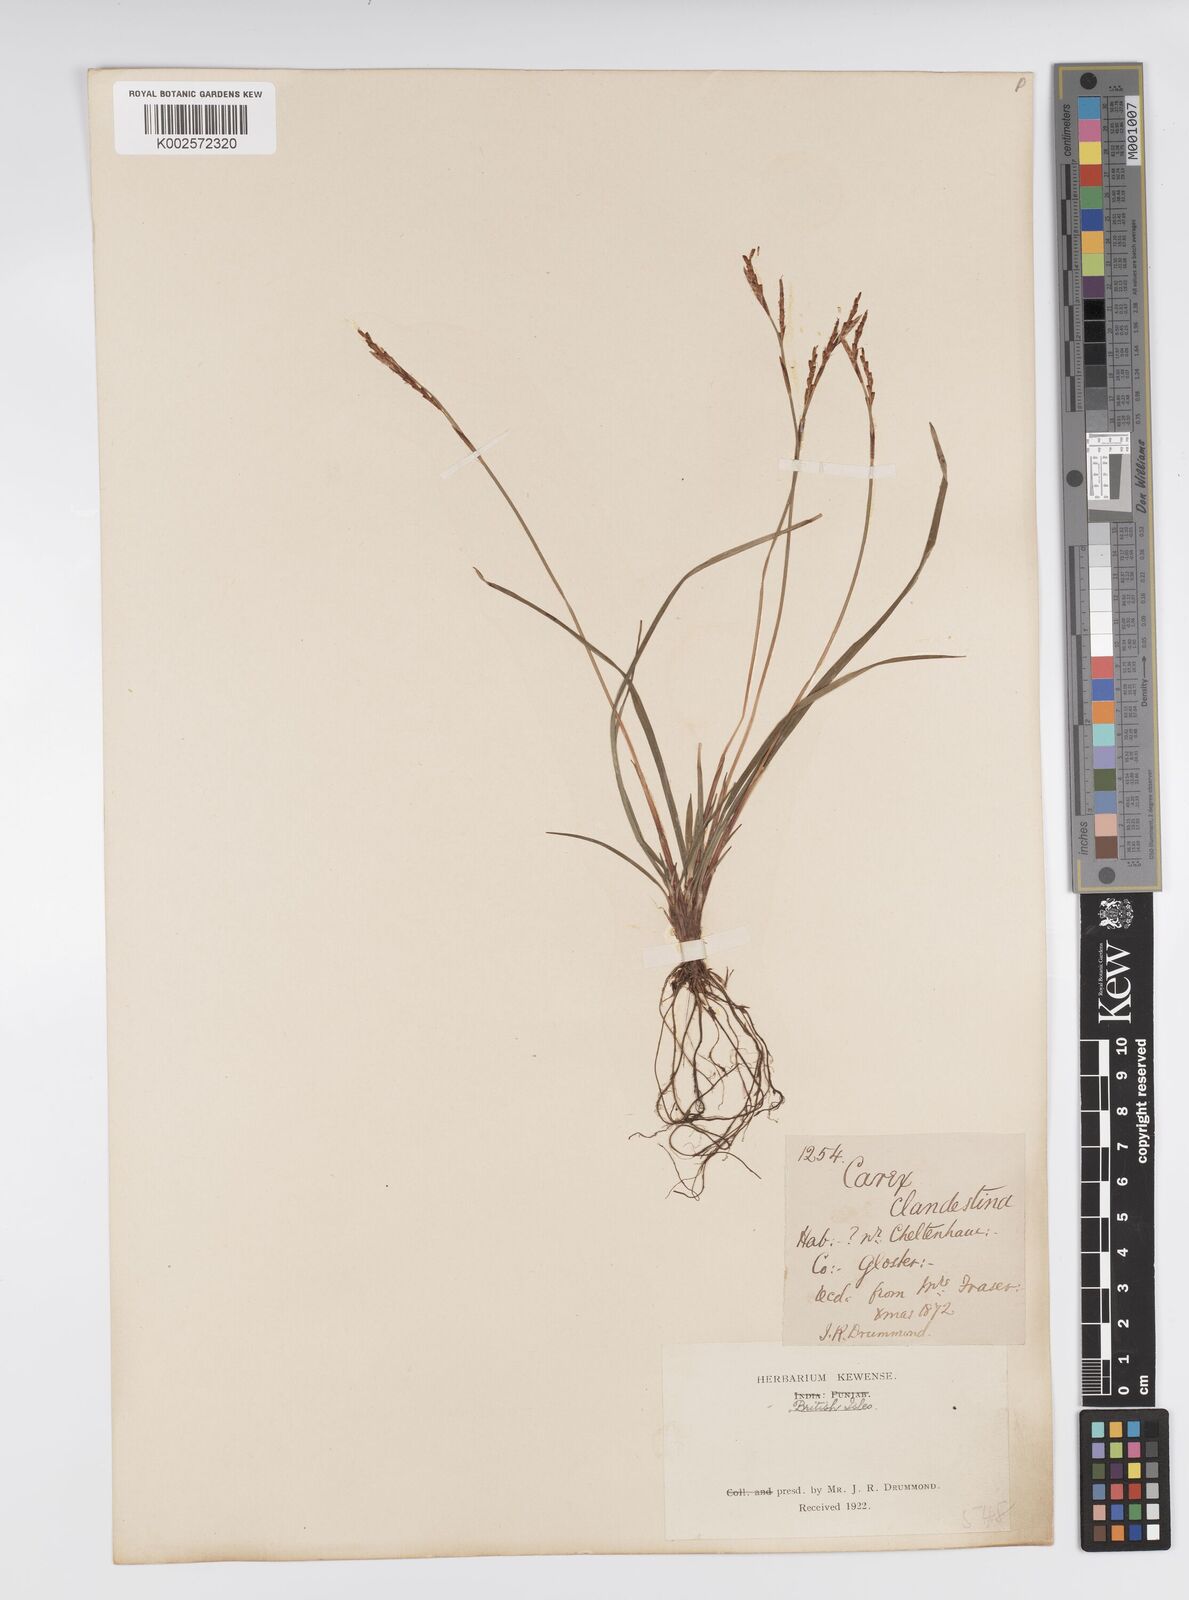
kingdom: Plantae
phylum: Tracheophyta
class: Liliopsida
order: Poales
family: Cyperaceae
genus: Carex
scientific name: Carex digitata
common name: Fingered sedge
